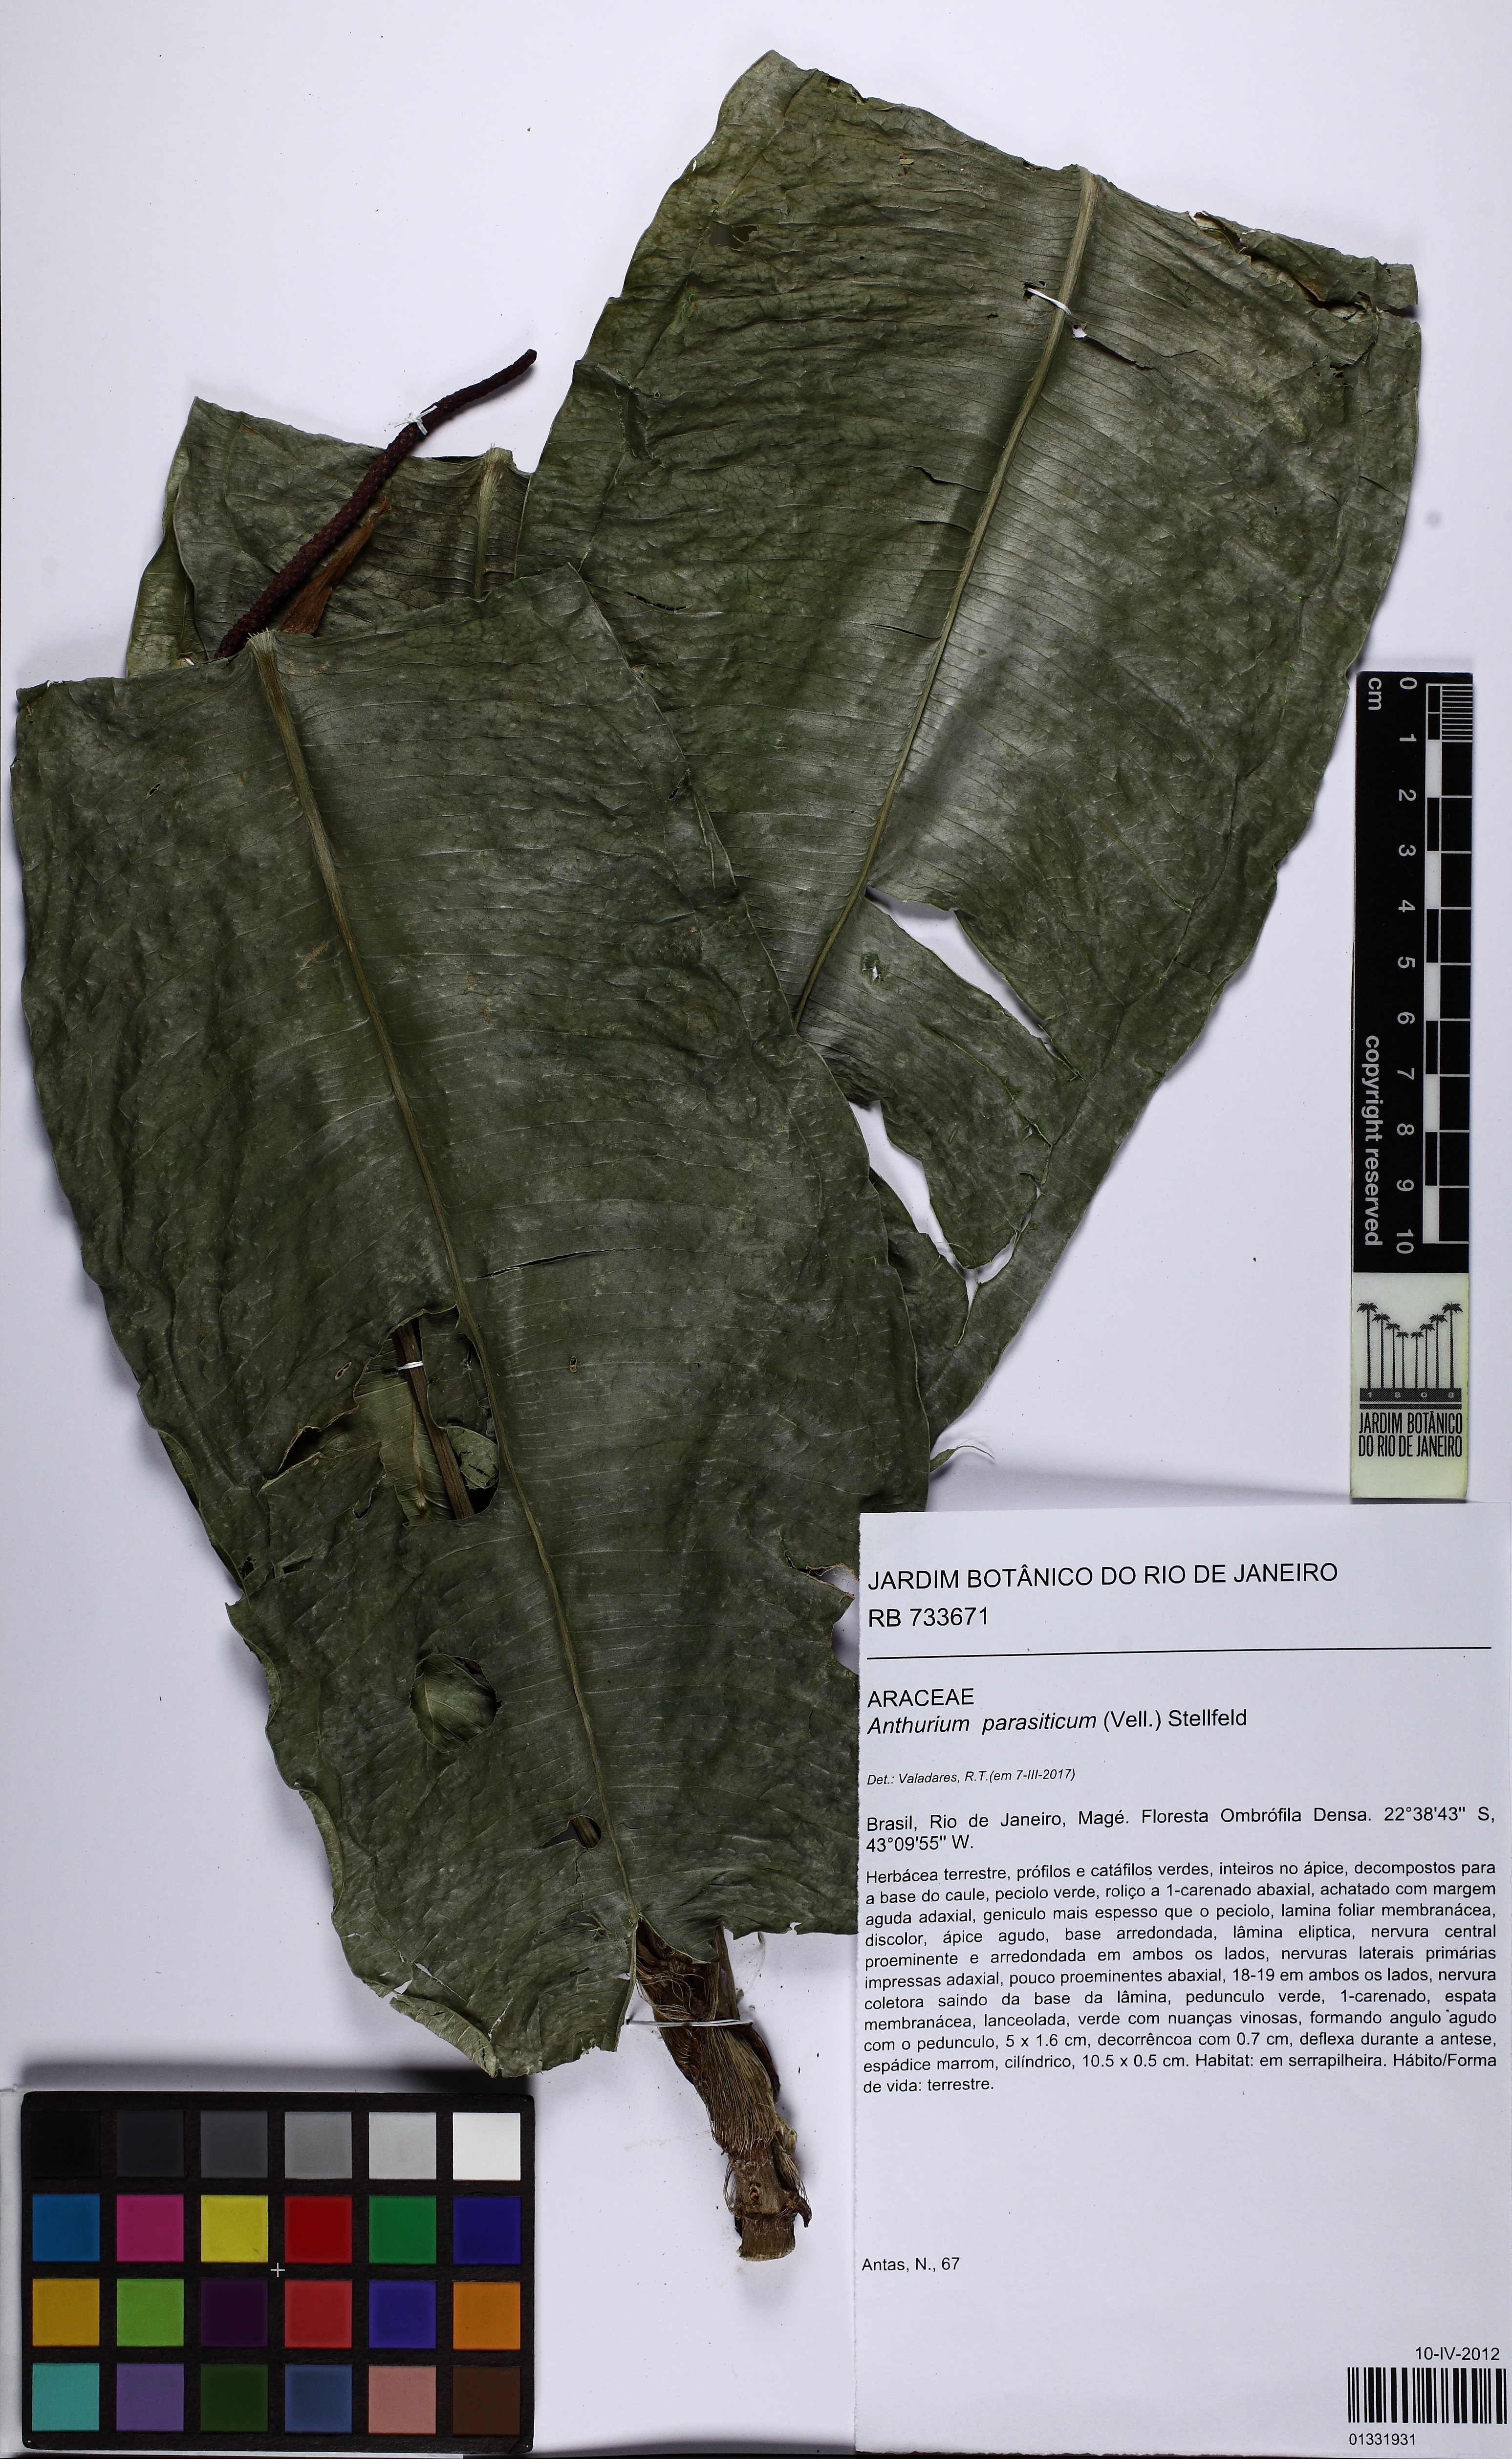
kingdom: Plantae
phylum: Tracheophyta
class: Liliopsida
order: Alismatales
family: Araceae
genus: Anthurium
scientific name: Anthurium parasiticum
